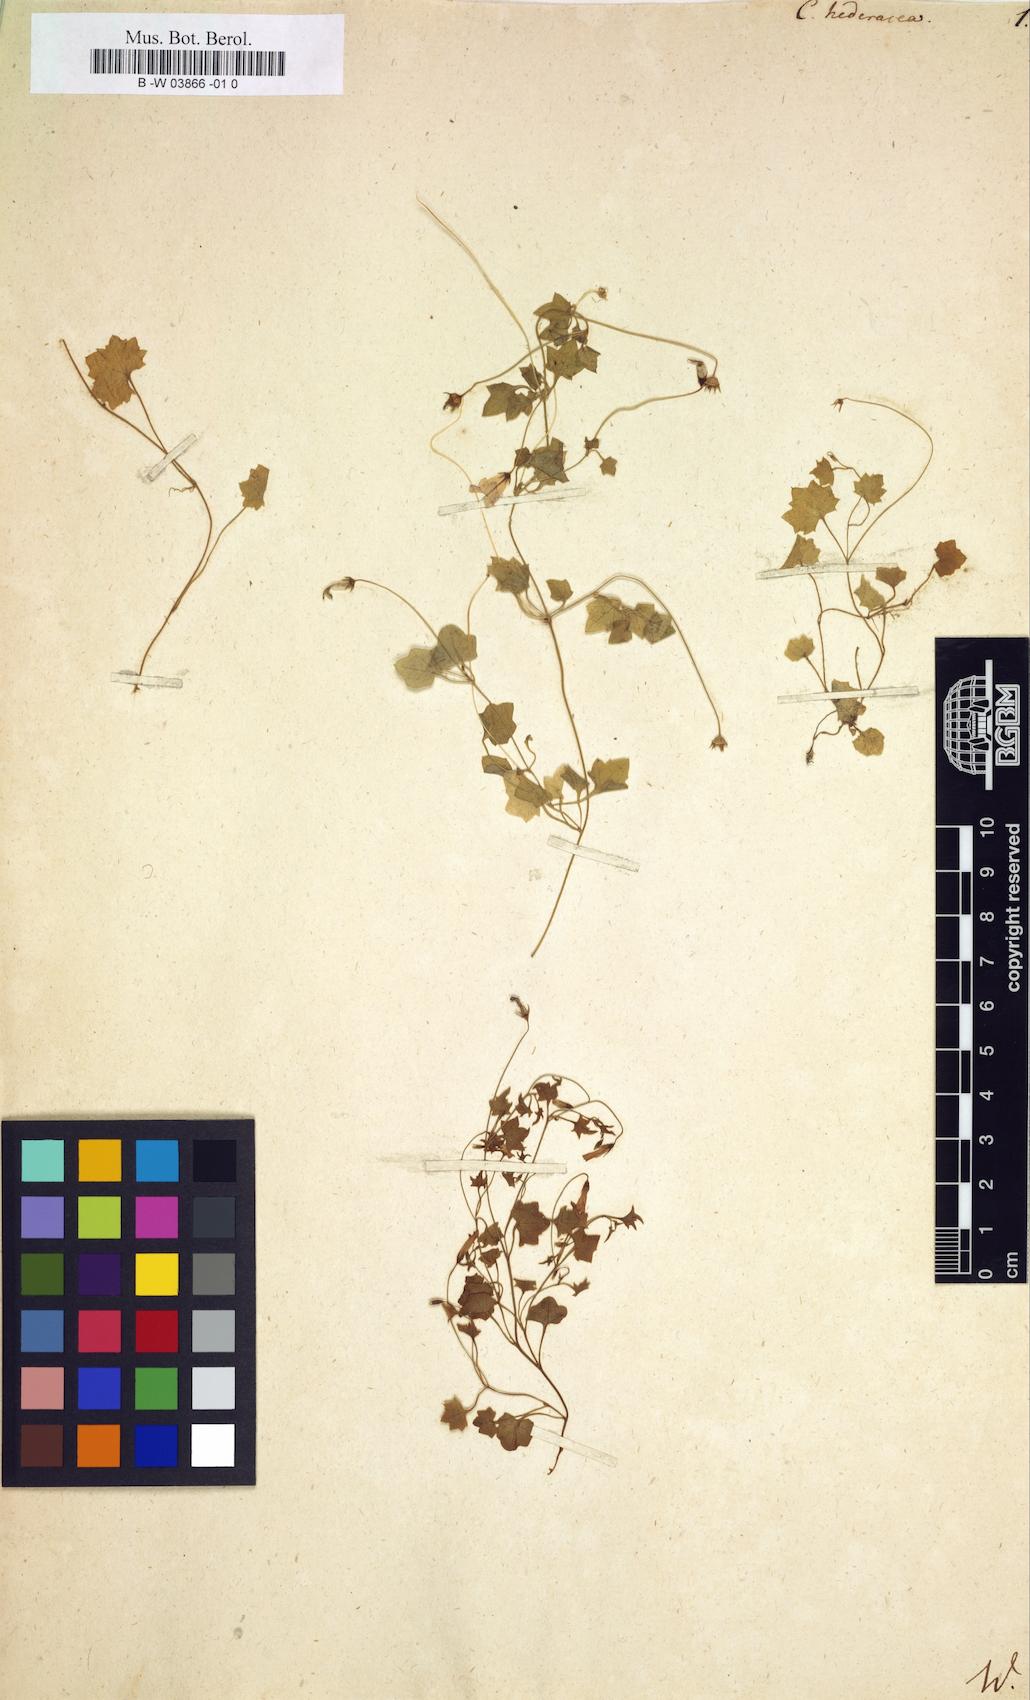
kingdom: Plantae
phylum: Tracheophyta
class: Magnoliopsida
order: Asterales
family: Campanulaceae
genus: Hesperocodon
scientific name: Hesperocodon hederaceus
